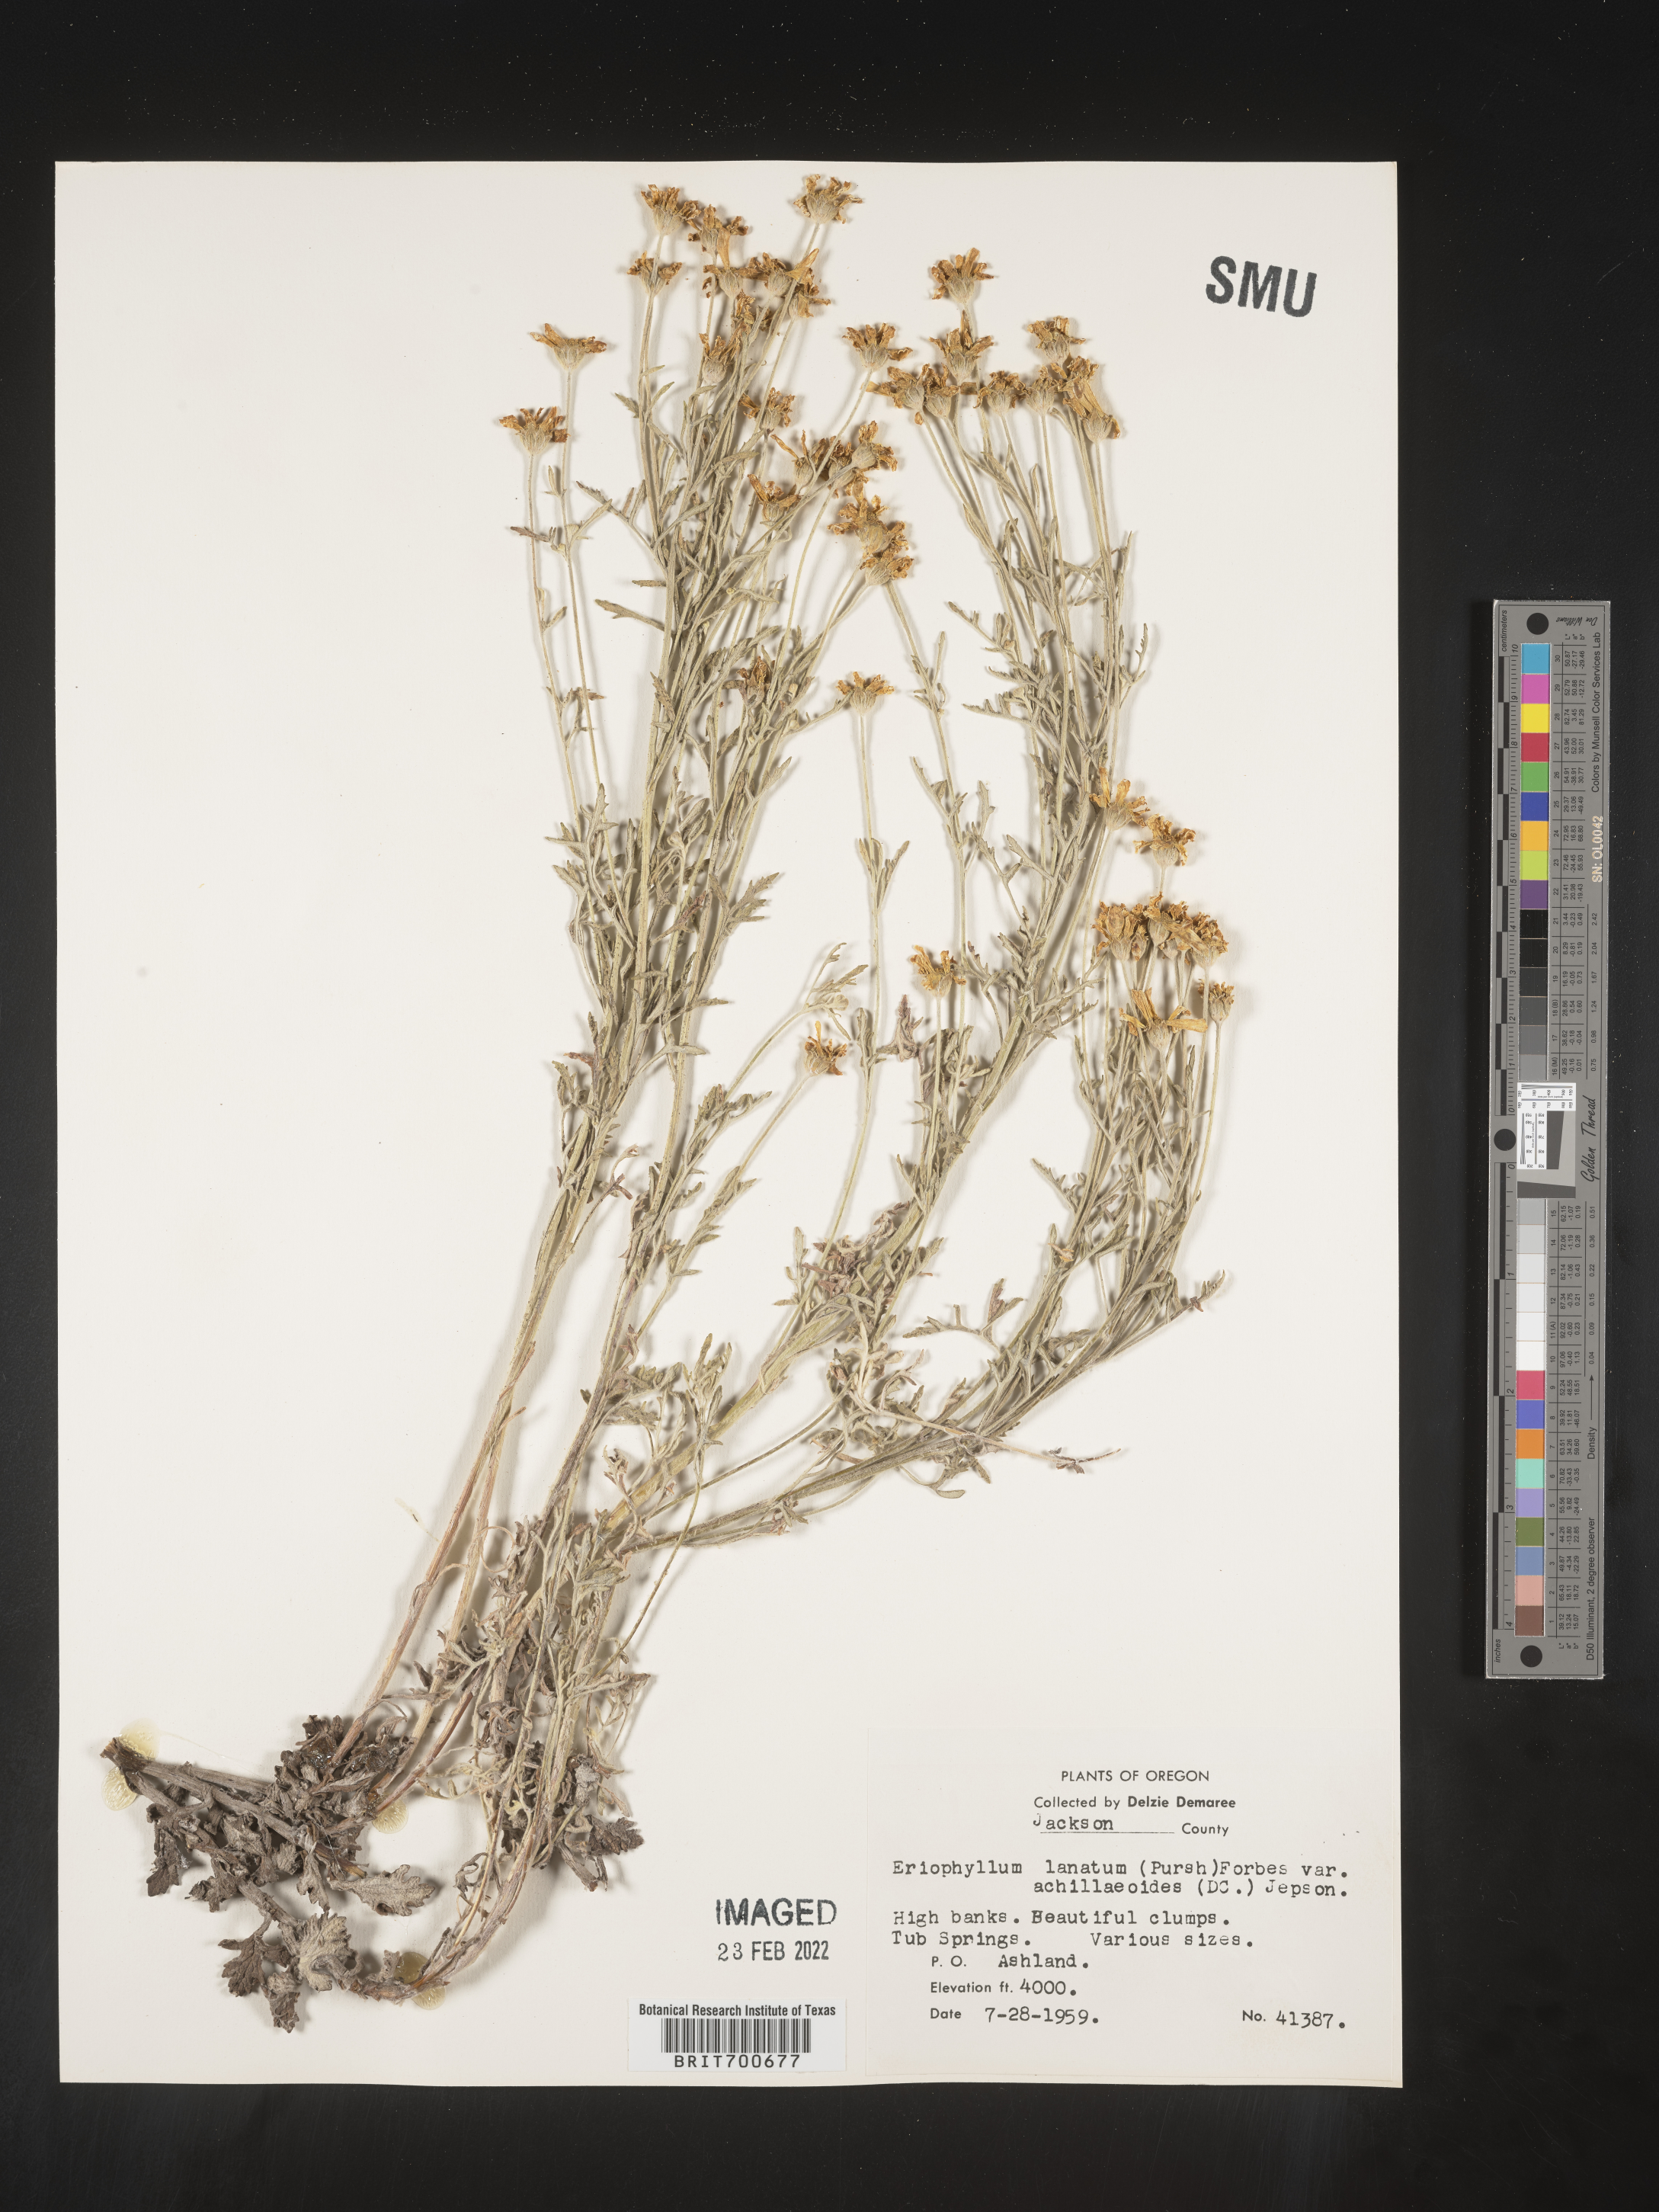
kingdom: Plantae
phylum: Tracheophyta
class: Magnoliopsida
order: Asterales
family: Asteraceae
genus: Eriophyllum
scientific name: Eriophyllum lanatum
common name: Common woolly-sunflower
